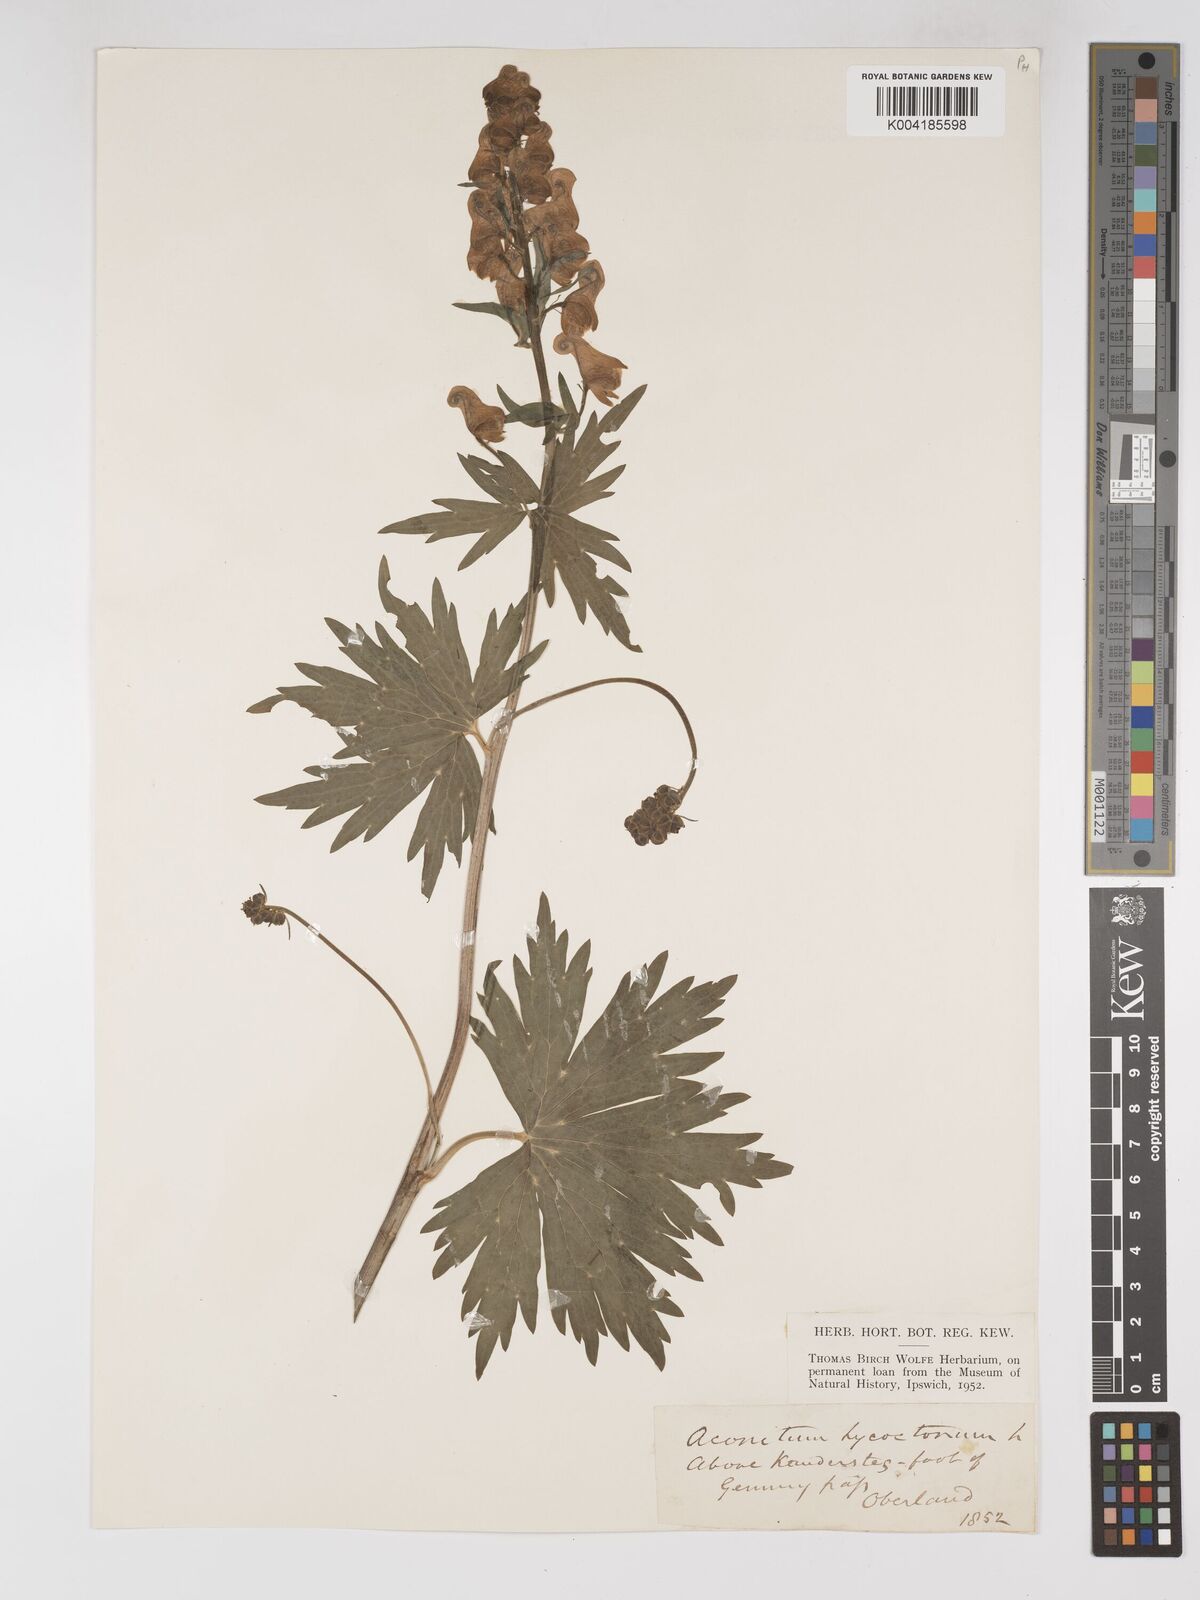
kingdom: Plantae
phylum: Tracheophyta
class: Magnoliopsida
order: Ranunculales
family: Ranunculaceae
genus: Aconitum
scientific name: Aconitum lycoctonum
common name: Wolf's-bane
